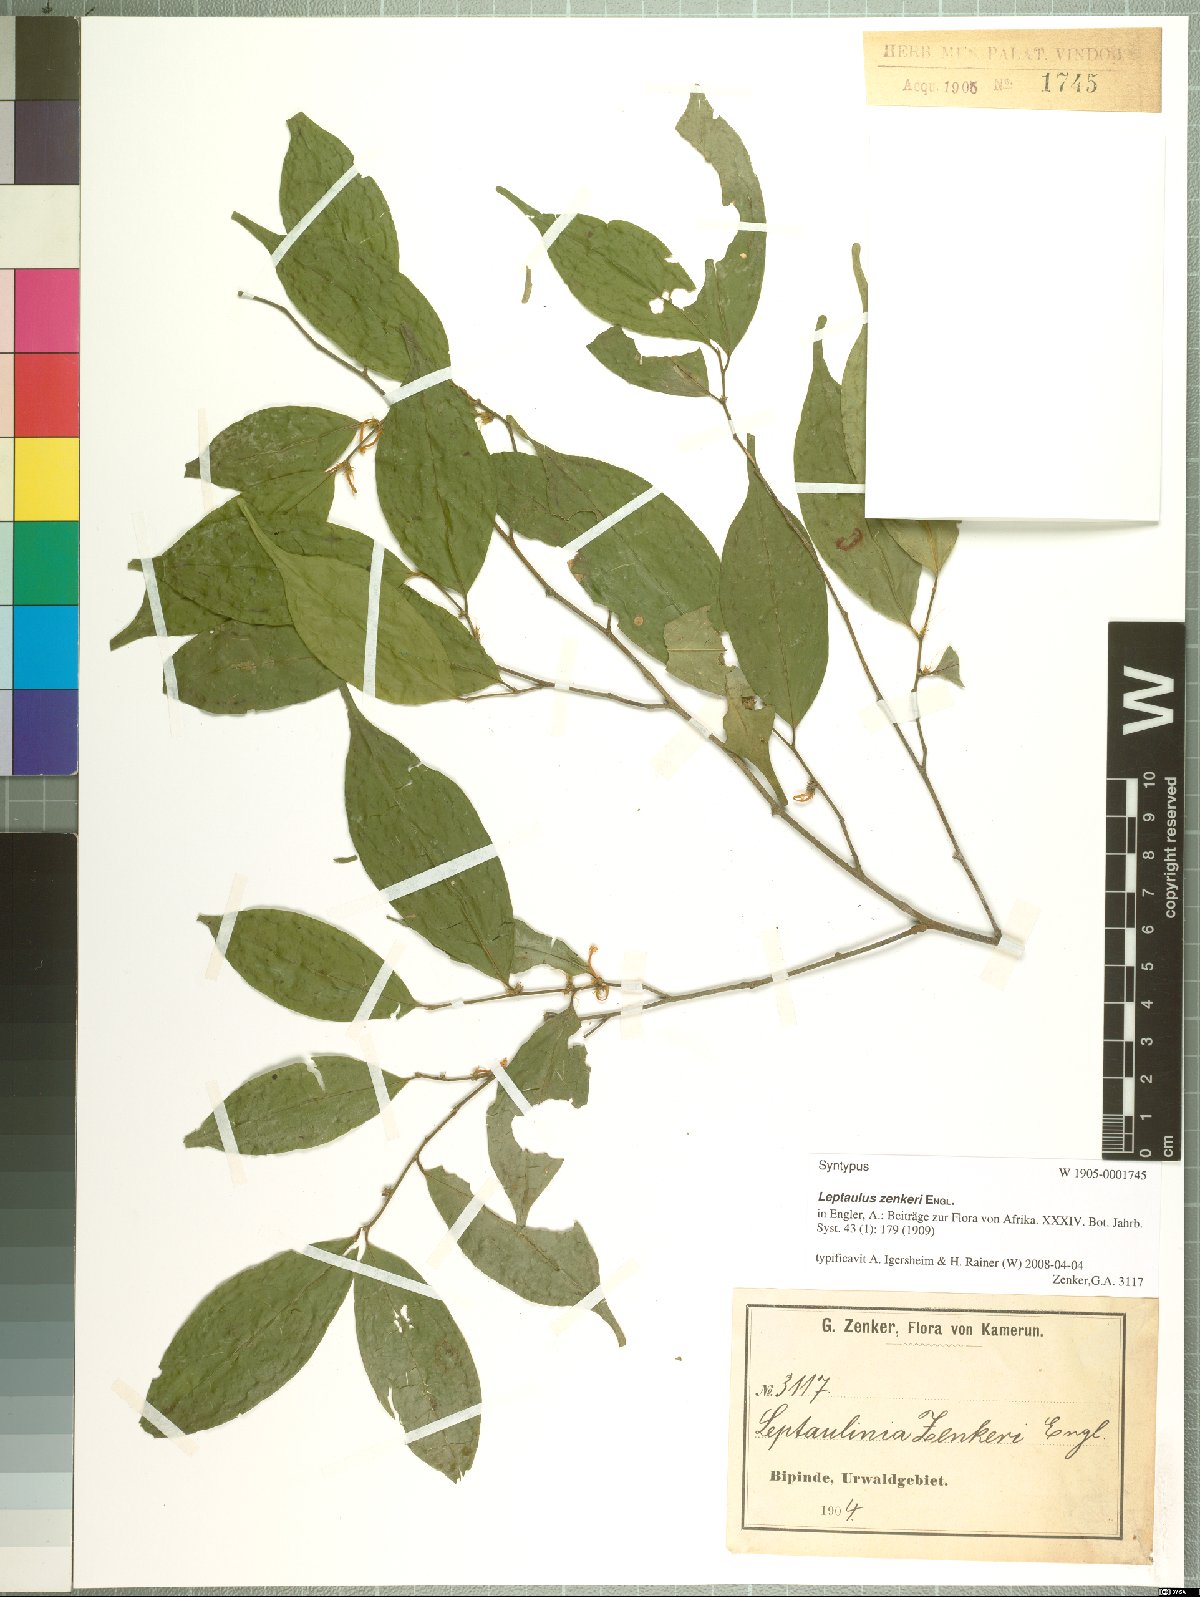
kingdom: Plantae
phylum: Tracheophyta
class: Magnoliopsida
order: Cardiopteridales
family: Cardiopteridaceae
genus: Leptaulus
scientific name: Leptaulus congolanus
